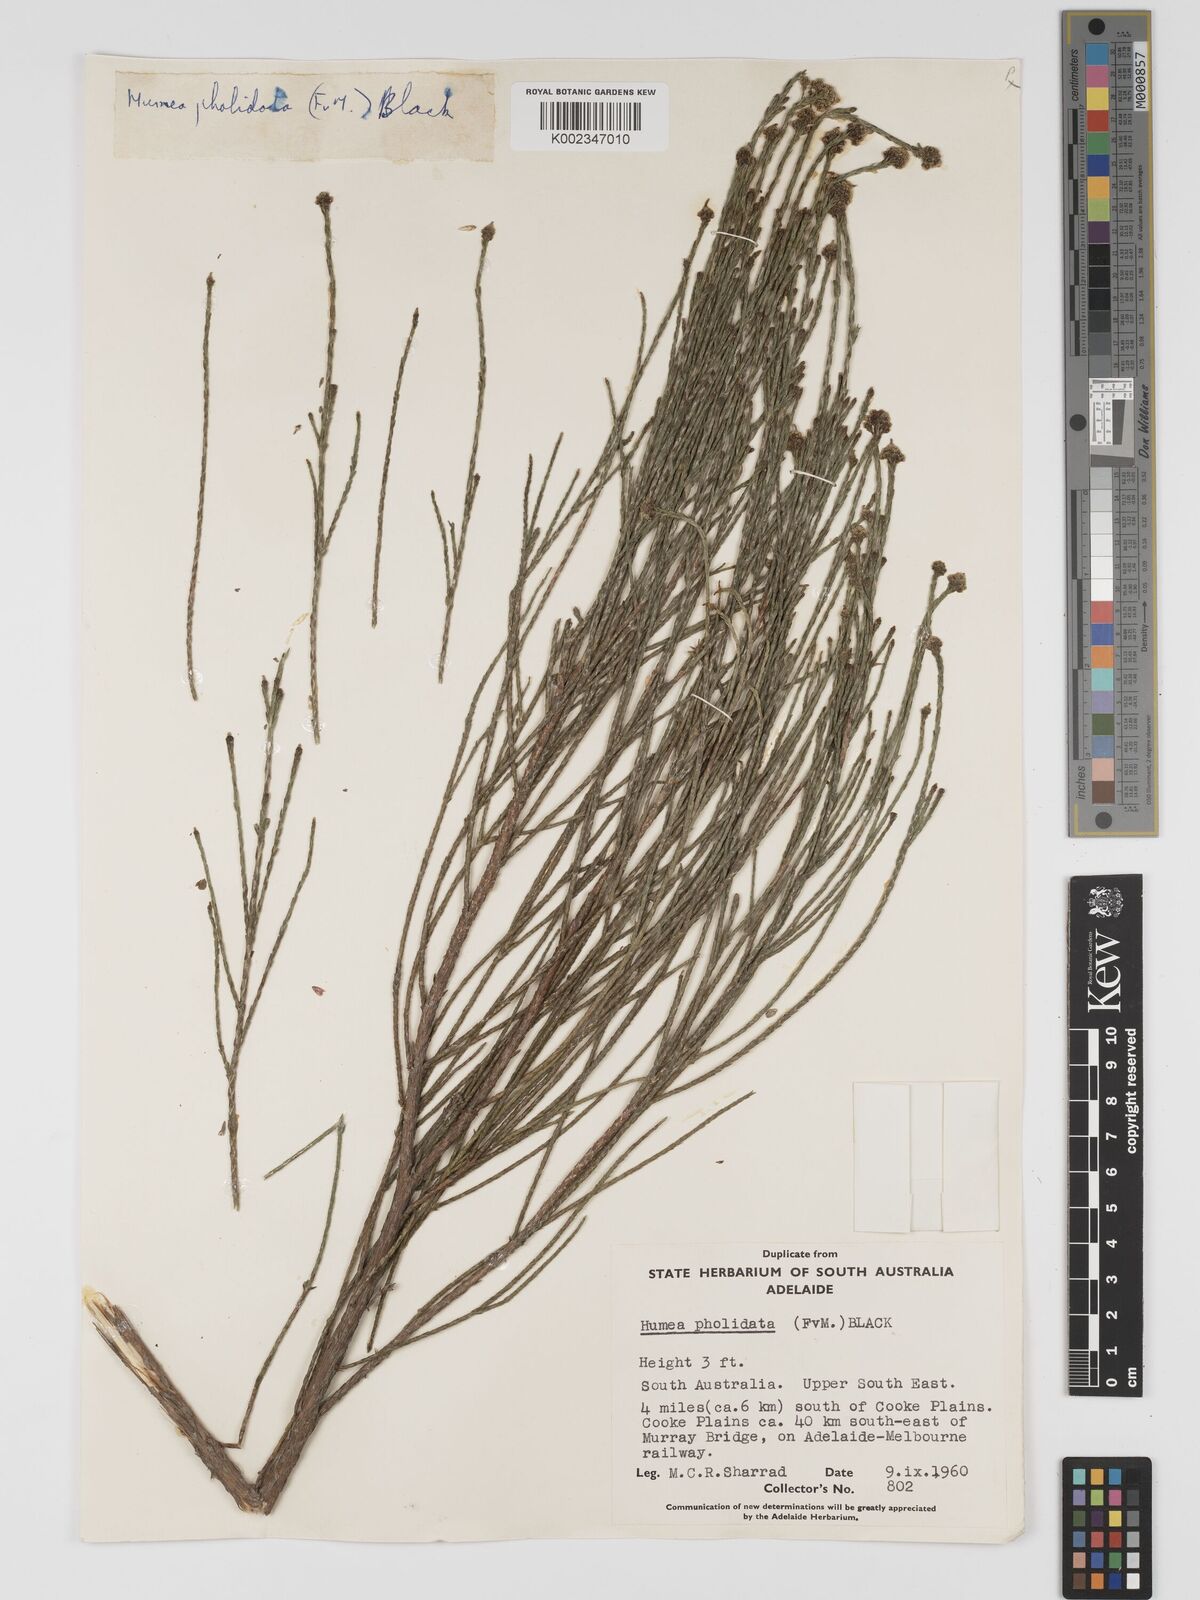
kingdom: Plantae
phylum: Tracheophyta
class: Magnoliopsida
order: Asterales
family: Asteraceae
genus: Haeckeria
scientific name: Haeckeria pholidota
